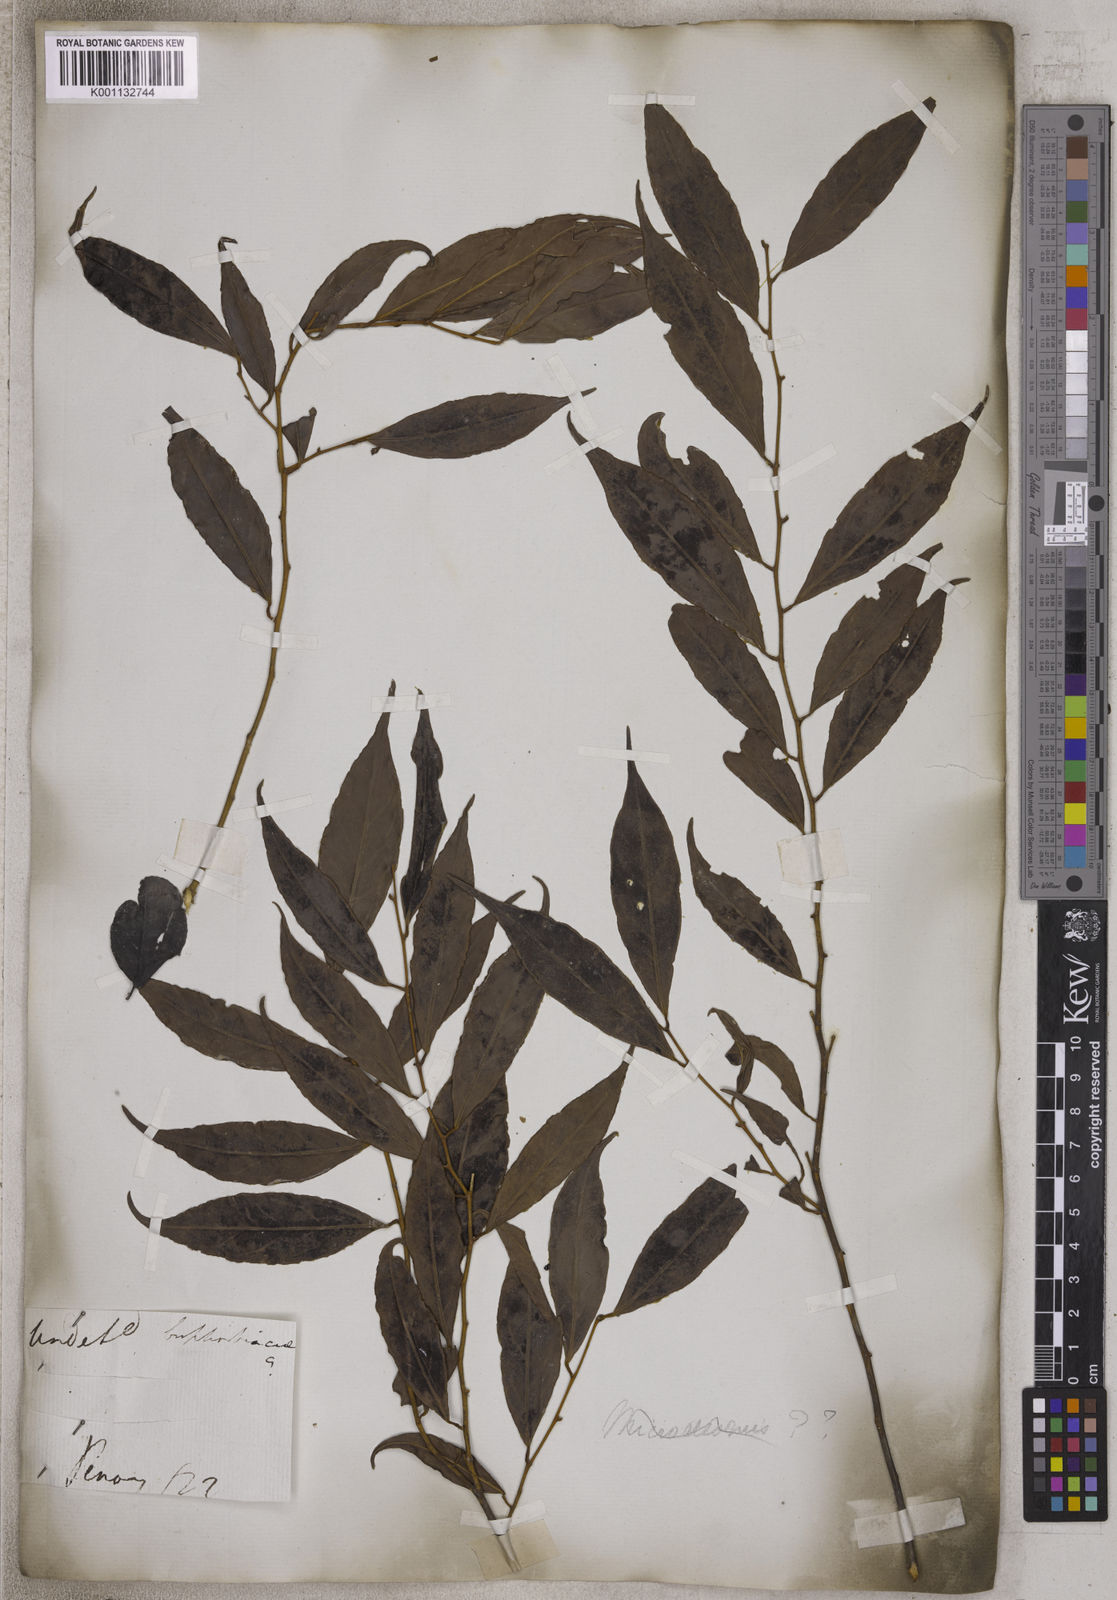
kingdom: Plantae
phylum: Tracheophyta
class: Magnoliopsida
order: Malpighiales
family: Euphorbiaceae
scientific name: Euphorbiaceae
